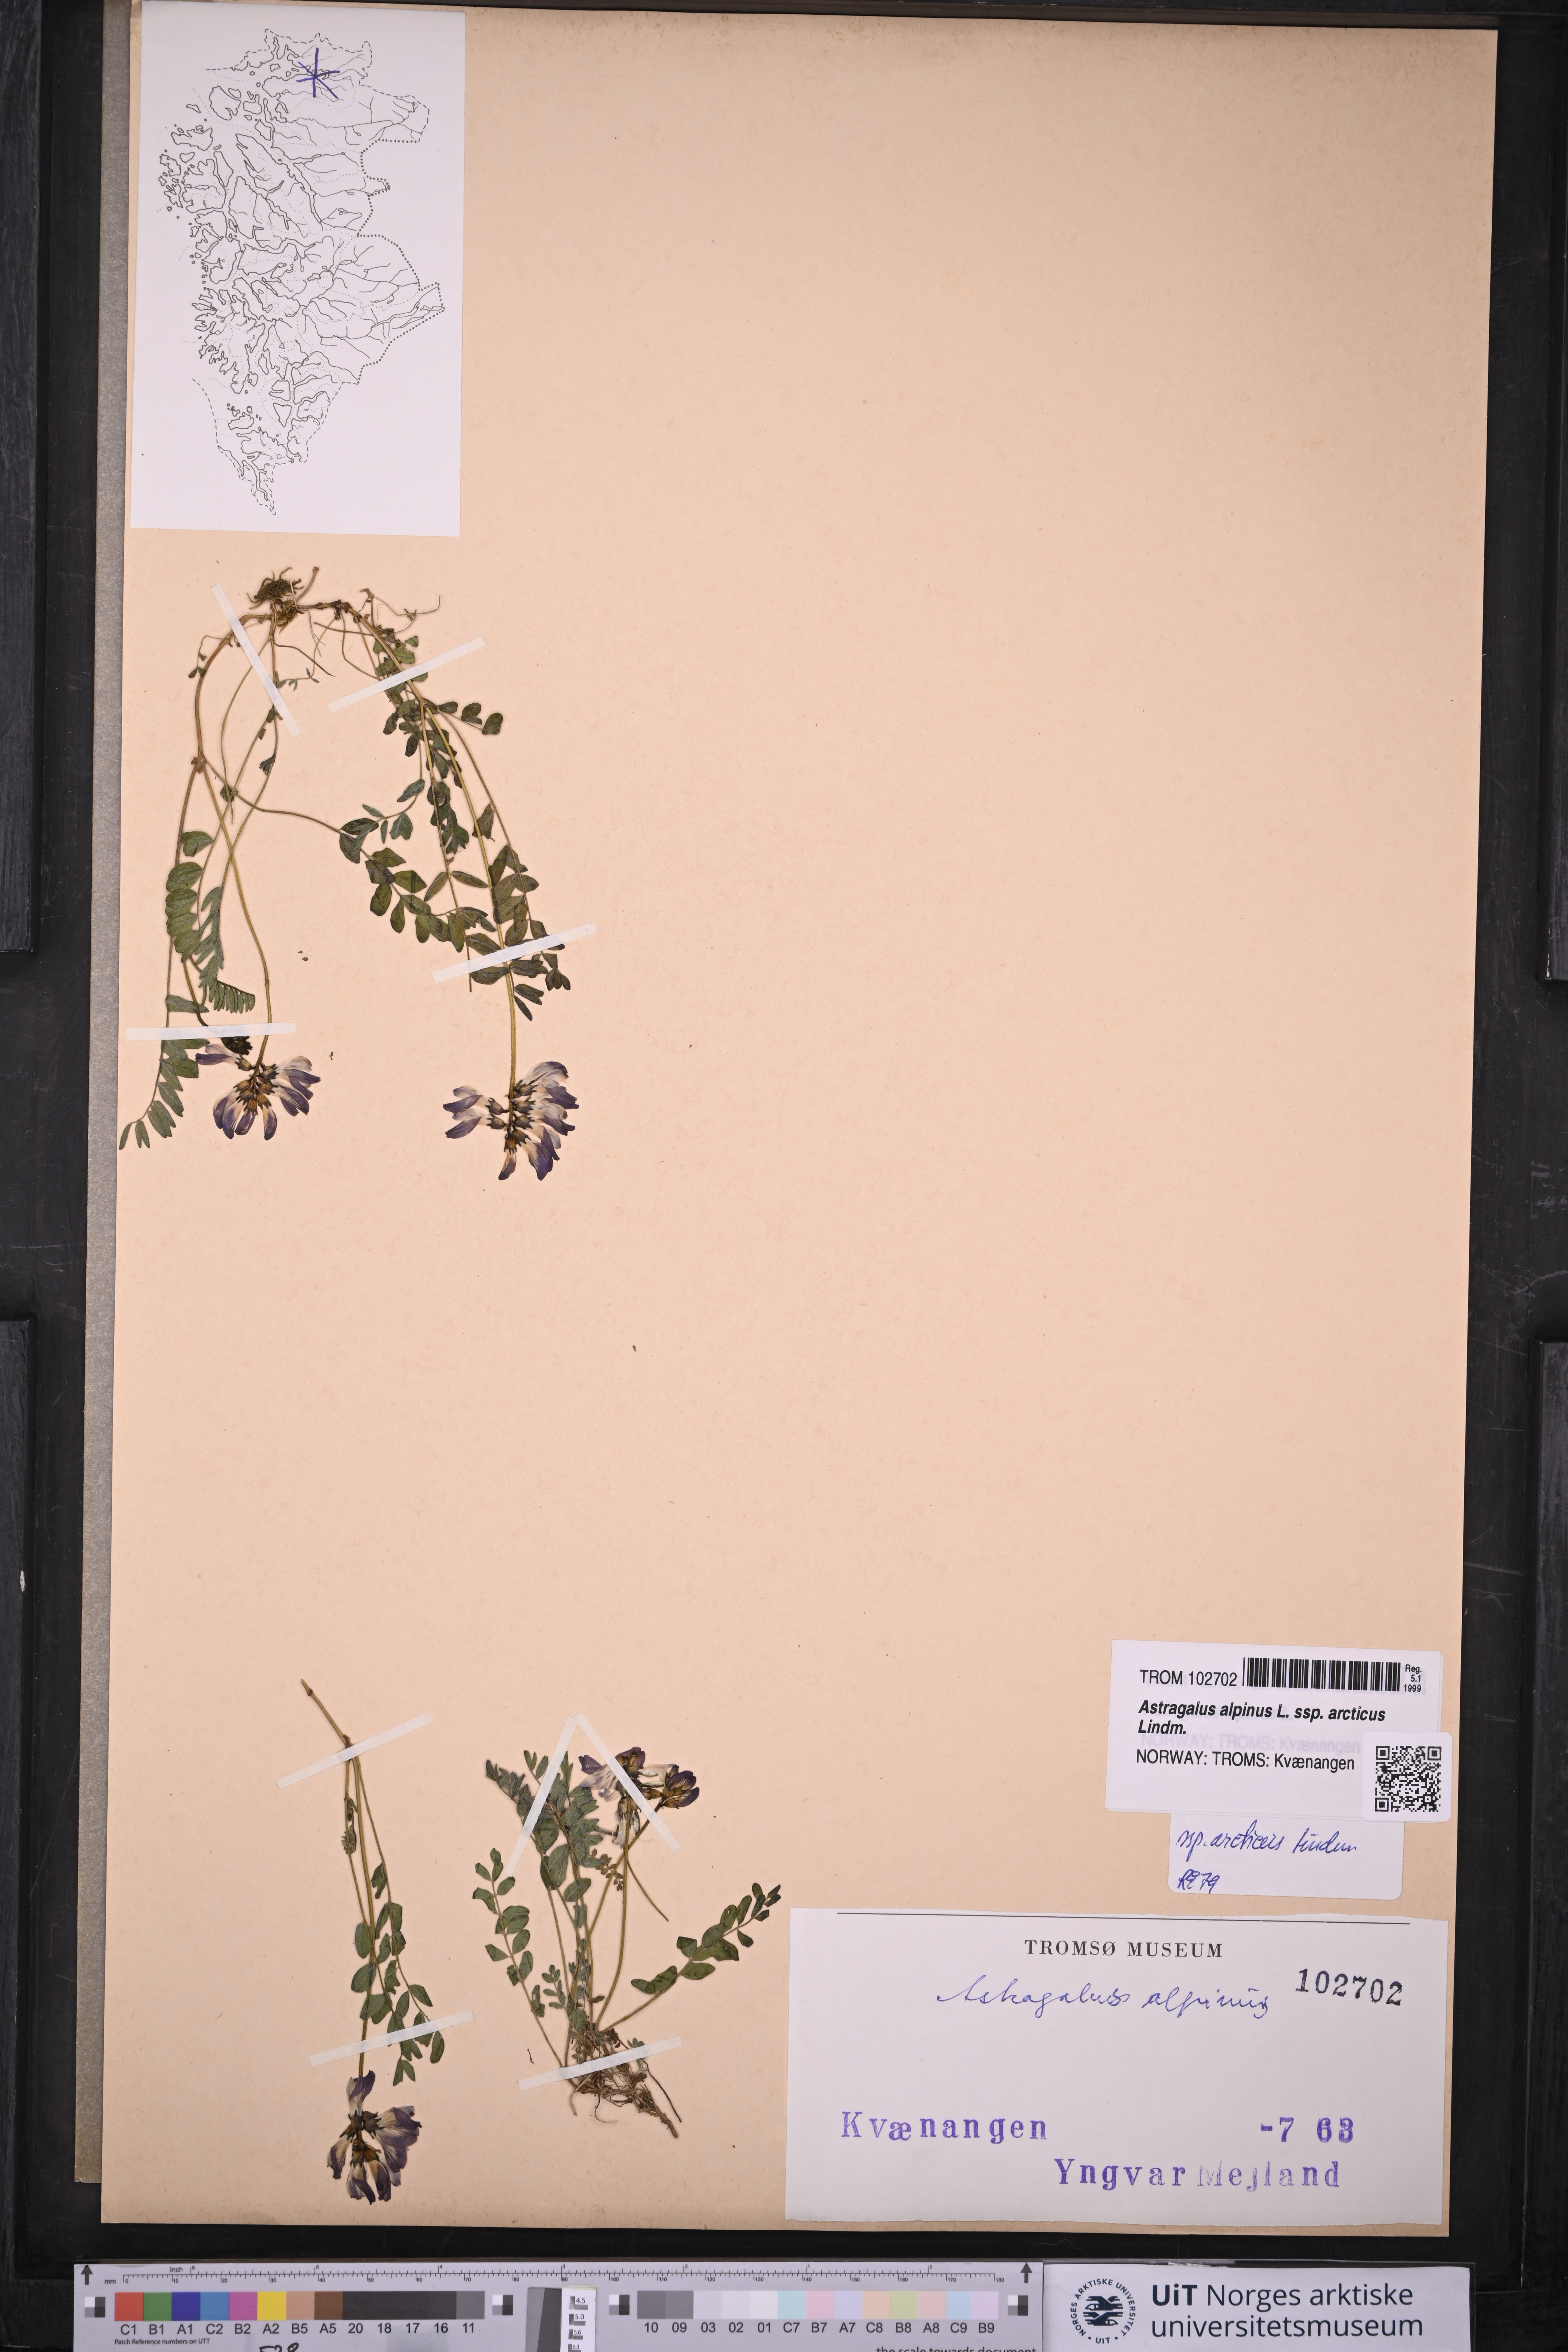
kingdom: Plantae
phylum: Tracheophyta
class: Magnoliopsida
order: Fabales
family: Fabaceae
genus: Astragalus
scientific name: Astragalus norvegicus
